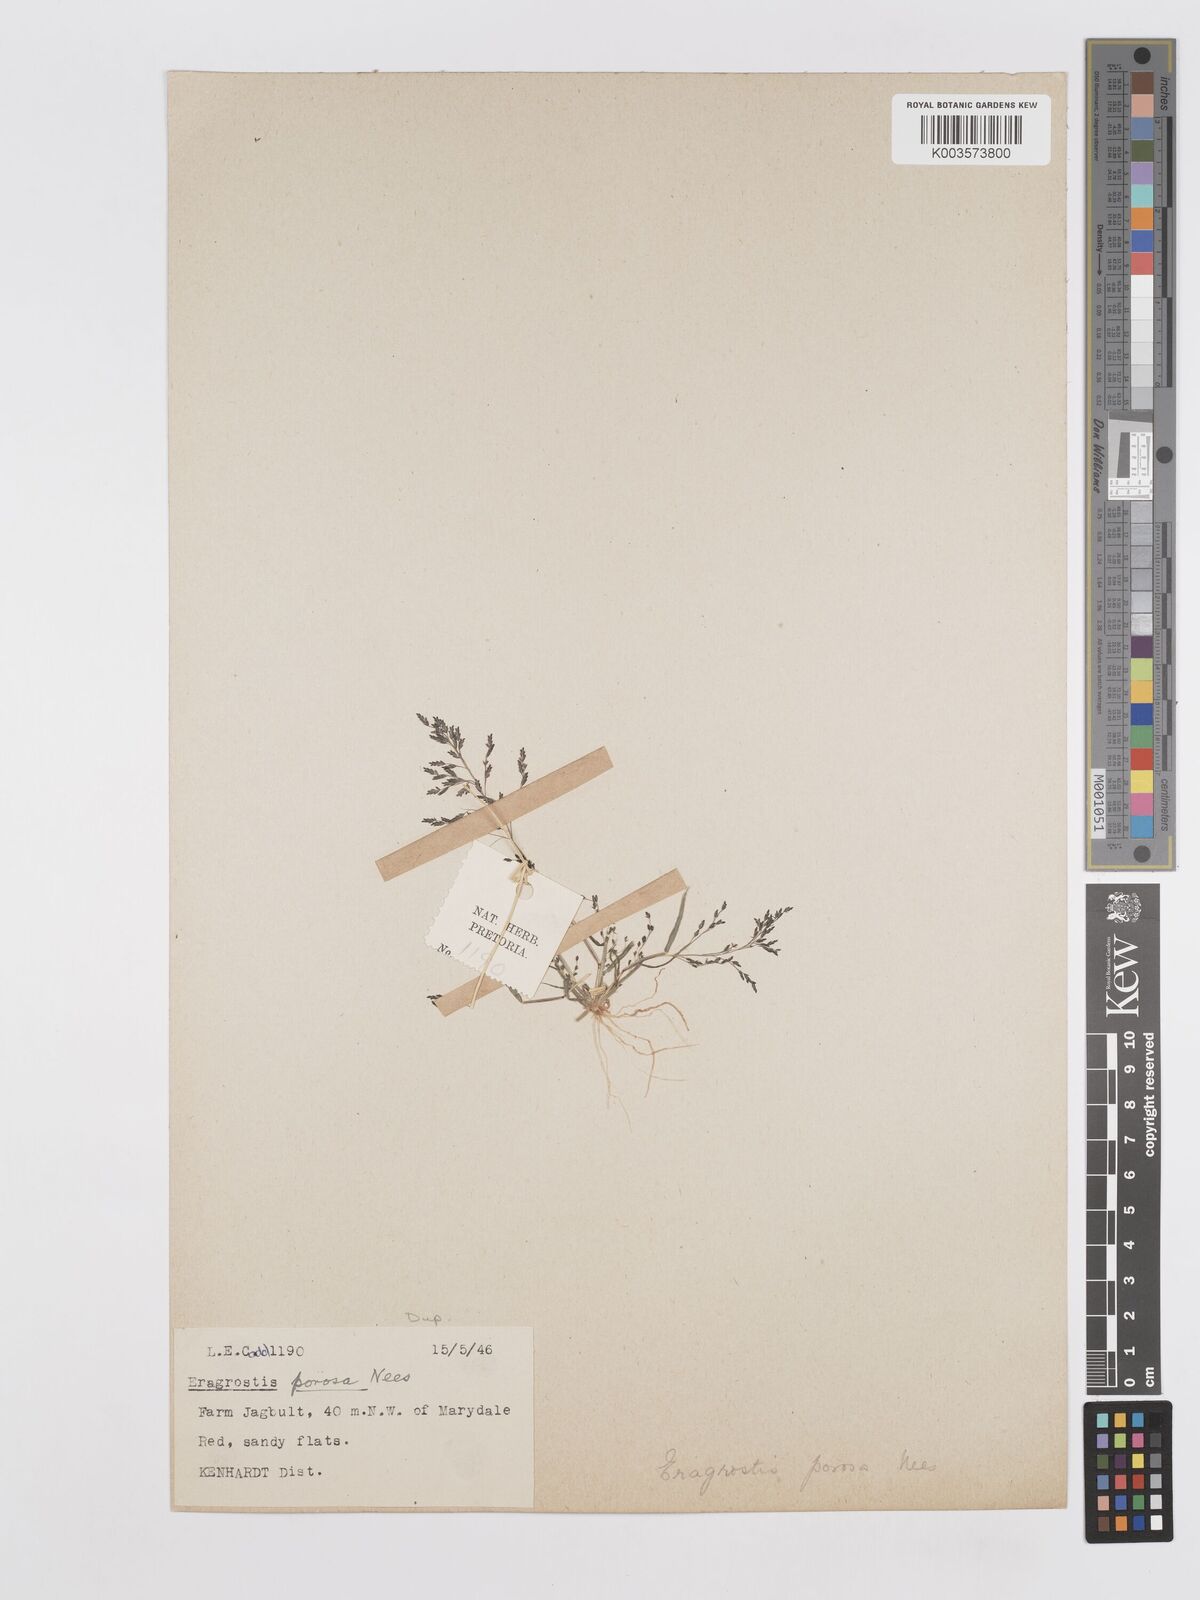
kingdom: Plantae
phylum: Tracheophyta
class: Liliopsida
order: Poales
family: Poaceae
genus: Eragrostis
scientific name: Eragrostis porosa
